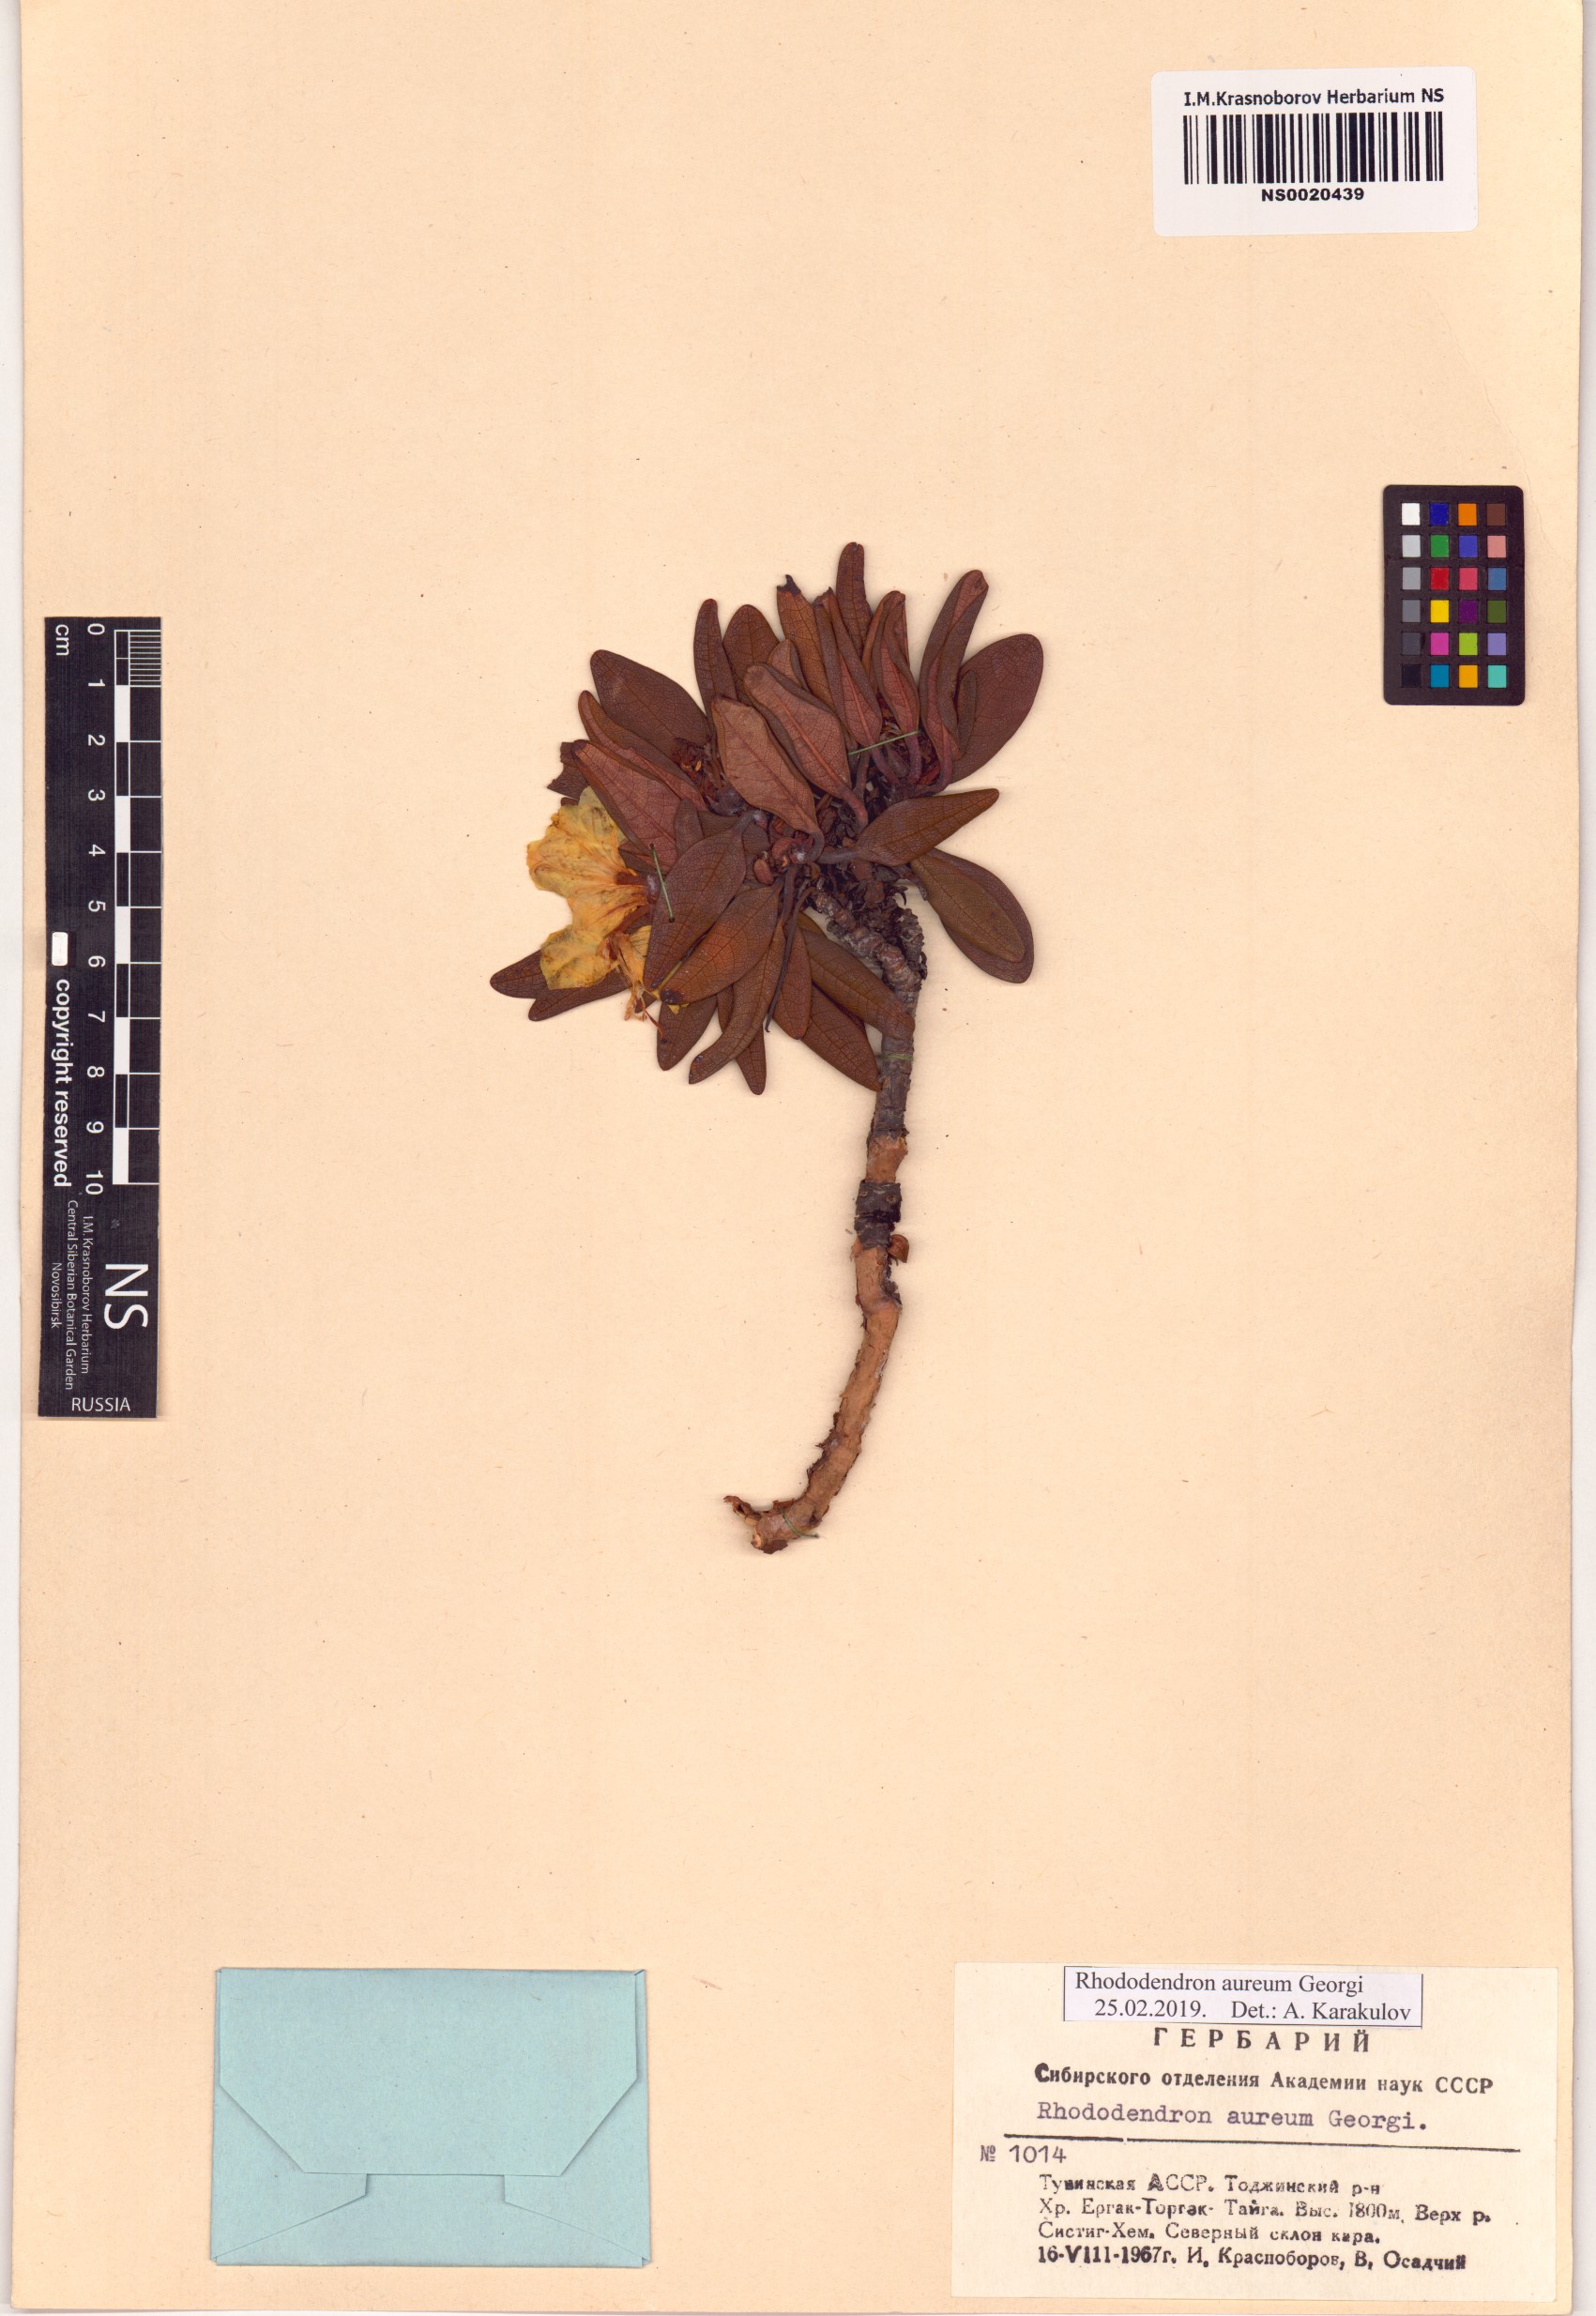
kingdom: Plantae
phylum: Tracheophyta
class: Magnoliopsida
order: Ericales
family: Ericaceae
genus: Rhododendron
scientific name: Rhododendron aureum
